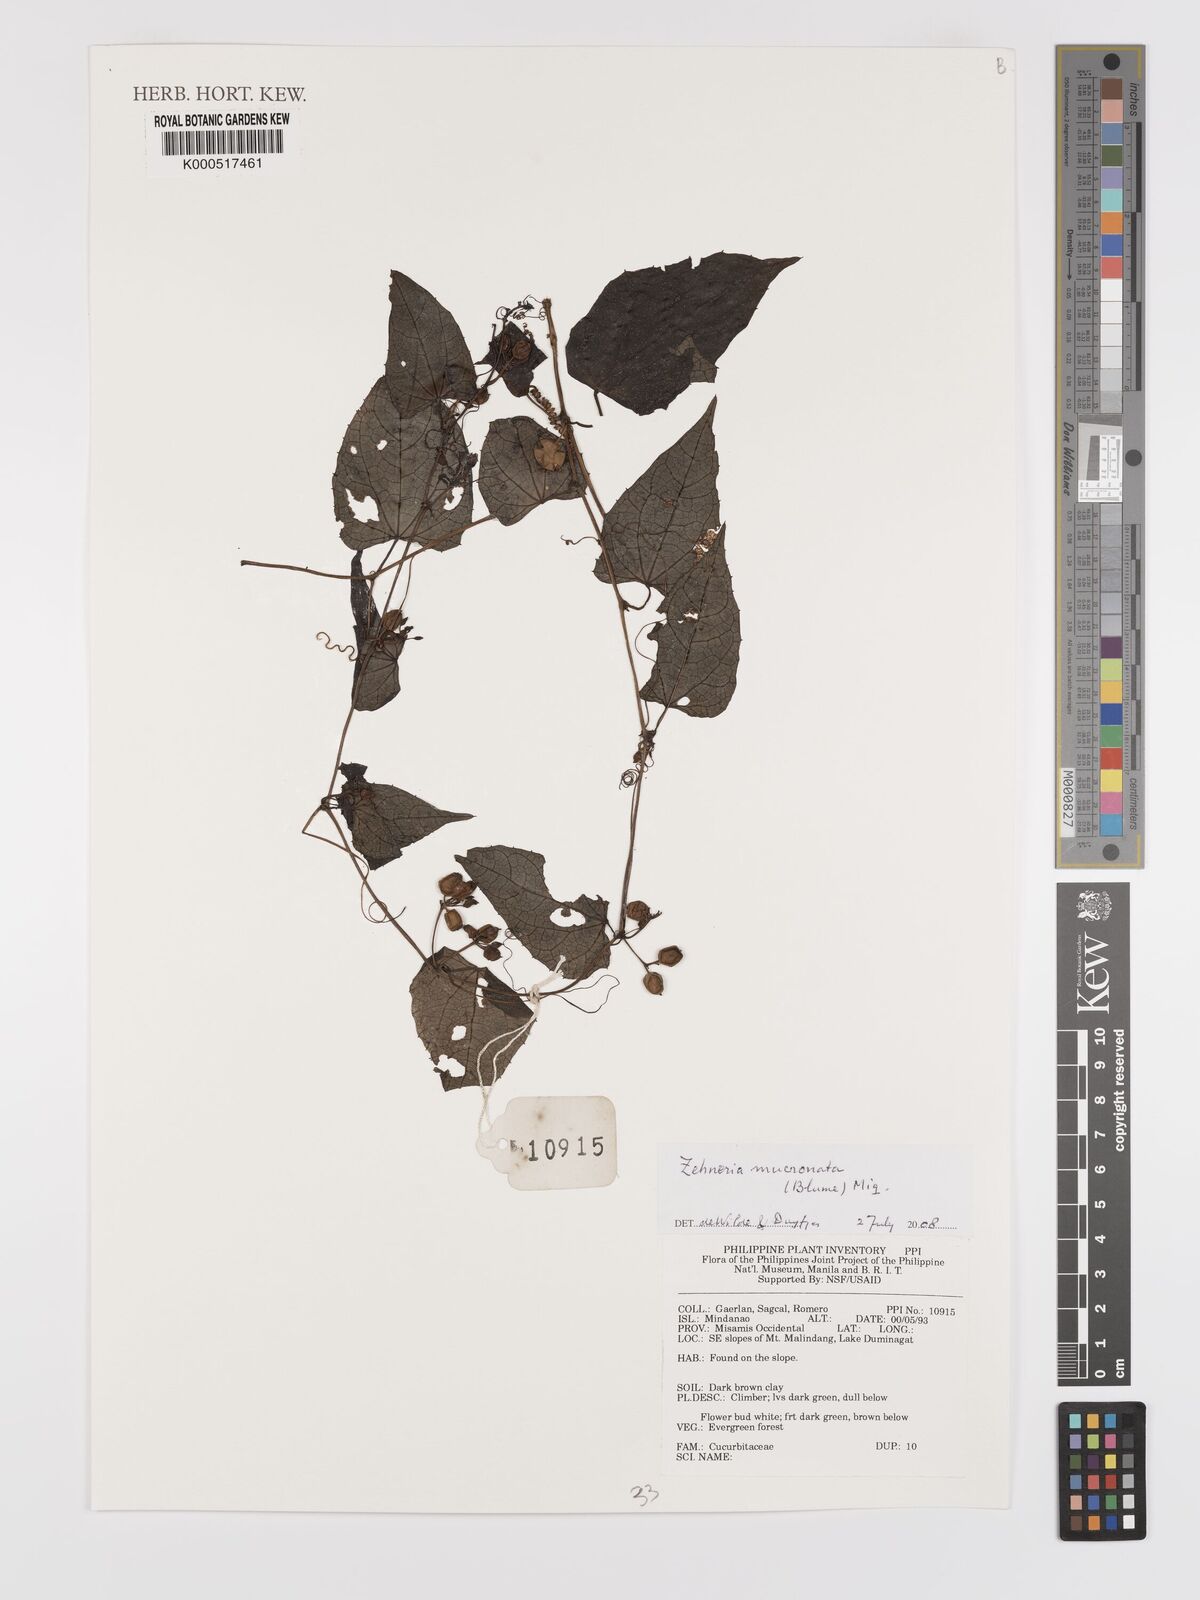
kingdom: Plantae
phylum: Tracheophyta
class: Magnoliopsida
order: Cucurbitales
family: Cucurbitaceae
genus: Zehneria
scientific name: Zehneria mucronata
